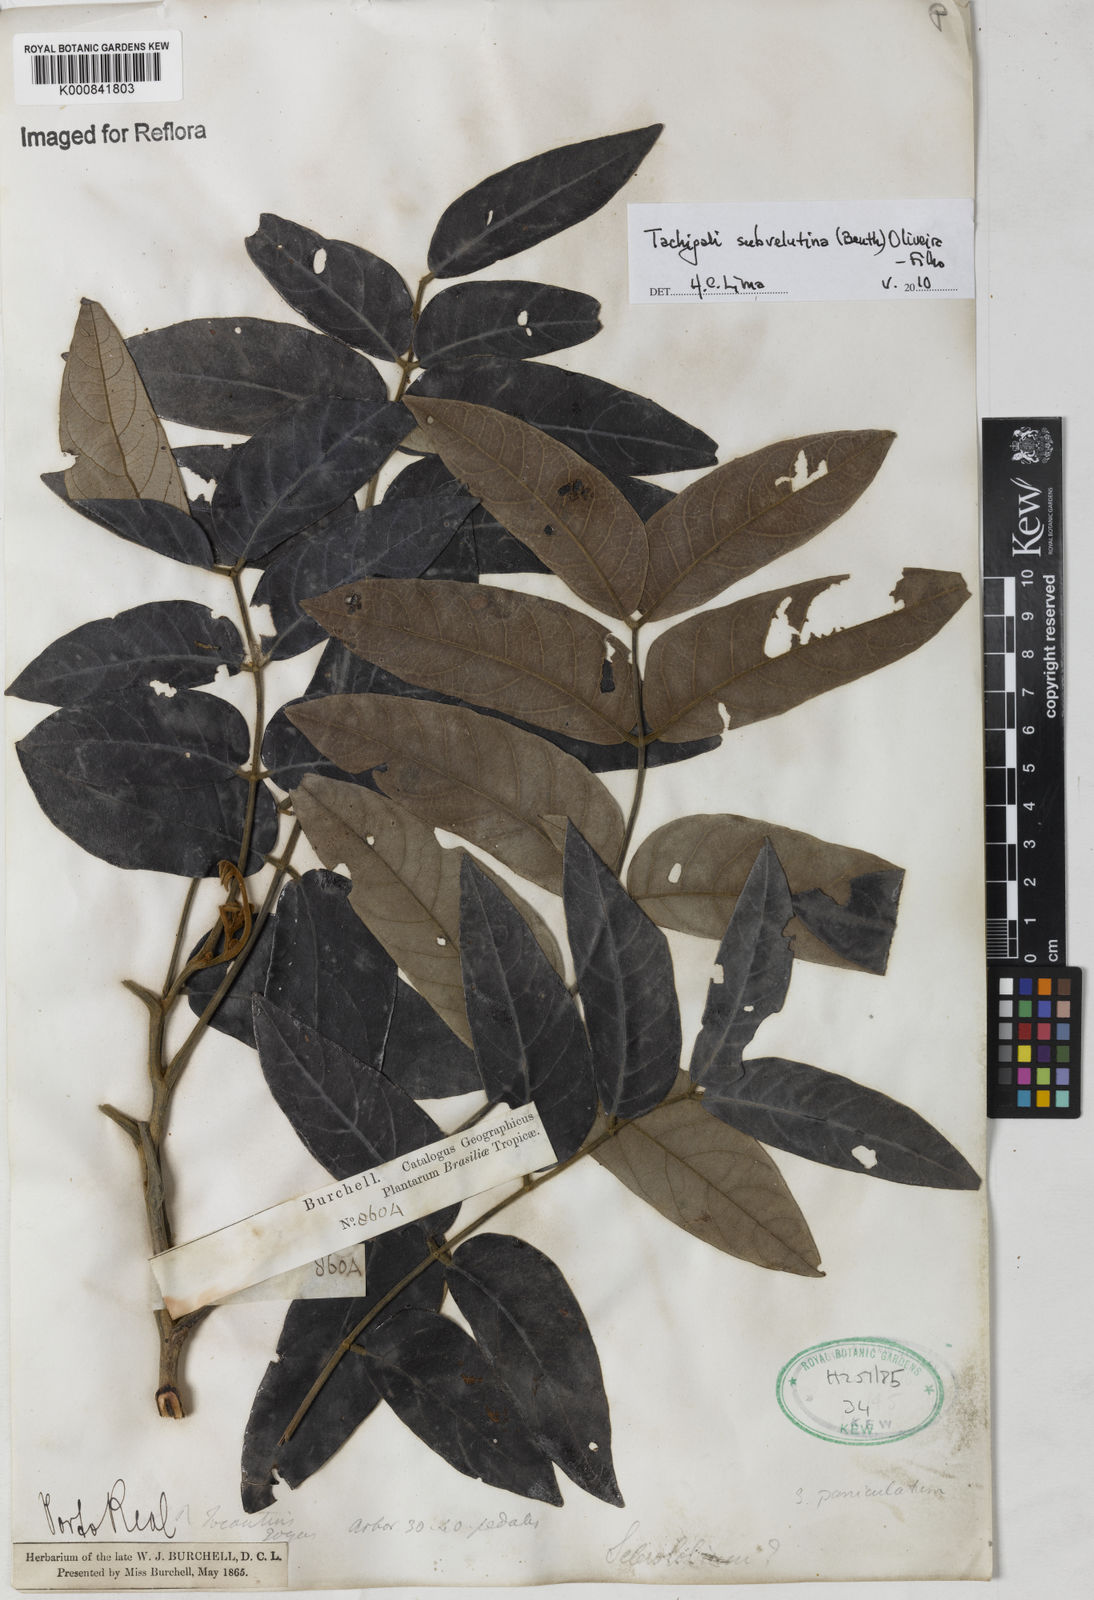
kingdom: Plantae
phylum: Tracheophyta
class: Magnoliopsida
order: Fabales
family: Fabaceae
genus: Tachigali
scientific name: Tachigali subvelutina
